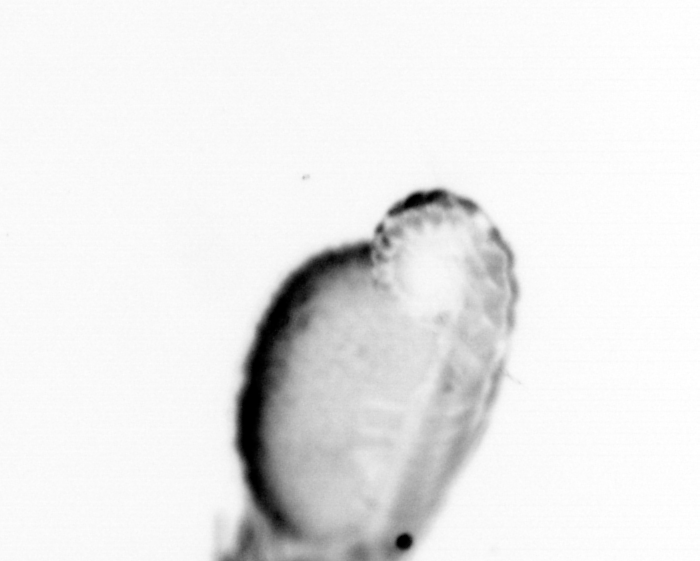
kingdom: Animalia
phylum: Annelida
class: Polychaeta
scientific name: Polychaeta
